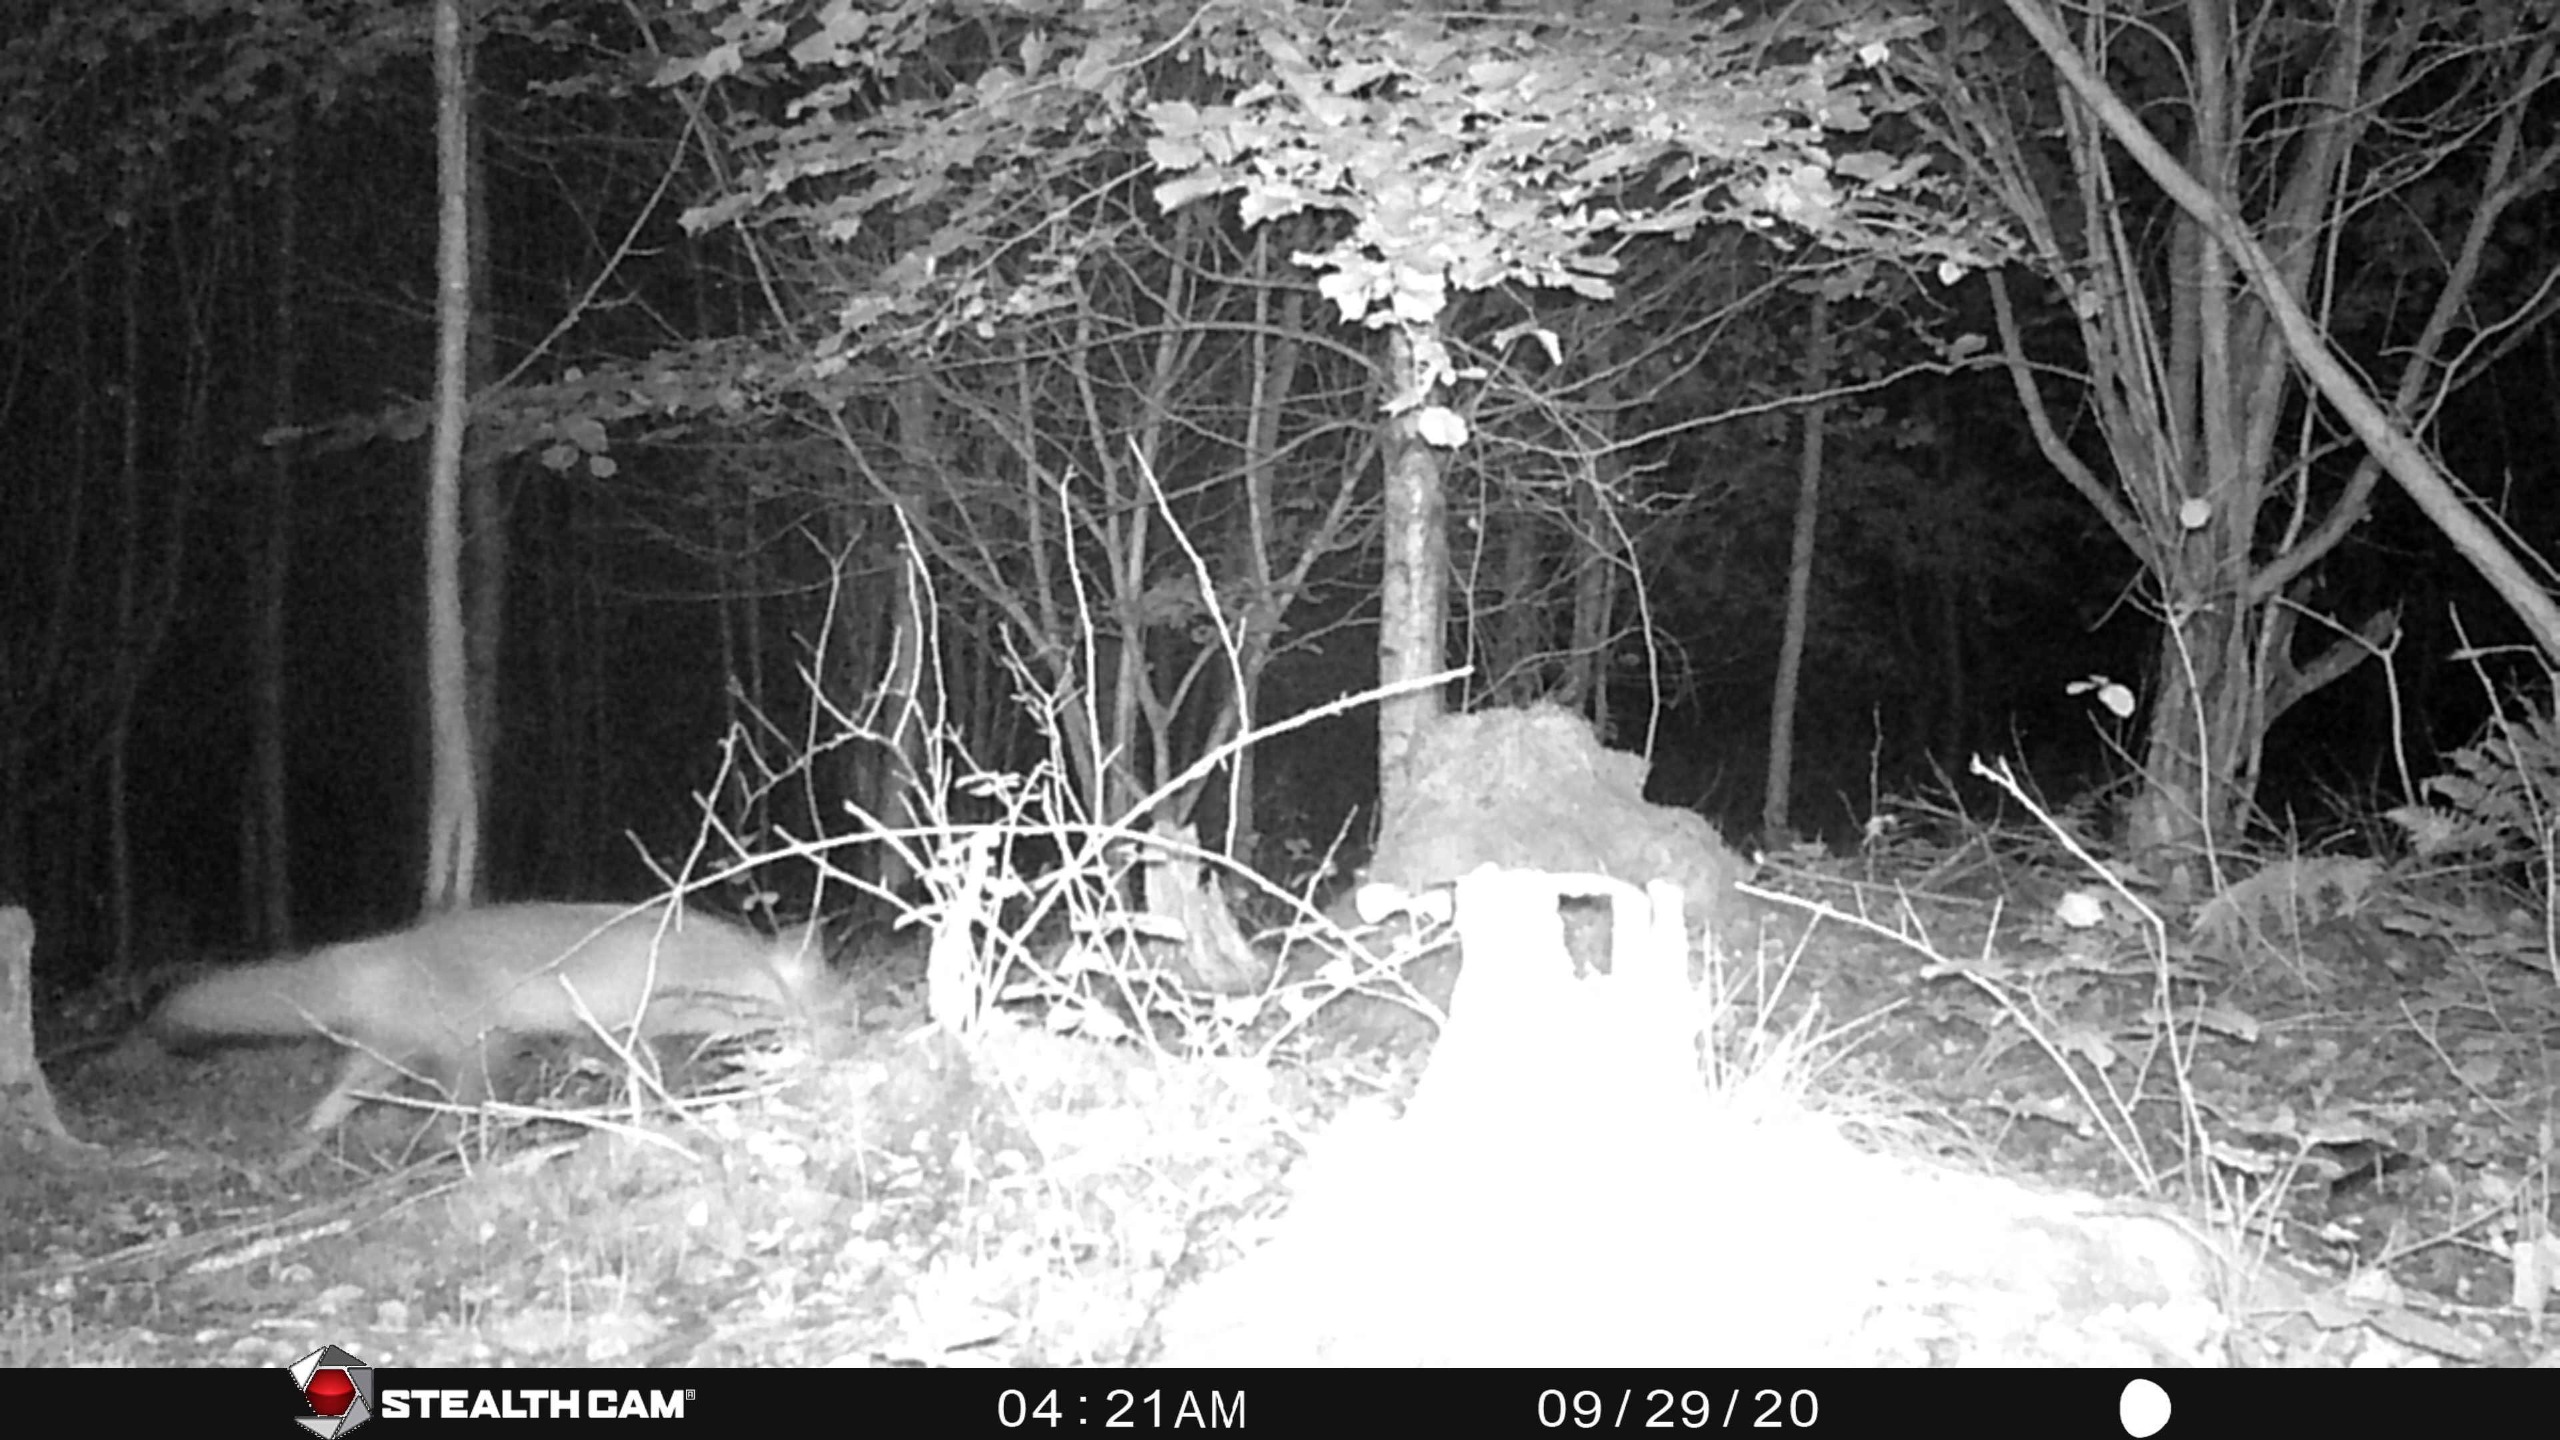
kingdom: Animalia
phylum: Chordata
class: Mammalia
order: Carnivora
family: Canidae
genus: Vulpes
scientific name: Vulpes vulpes
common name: Ræv
